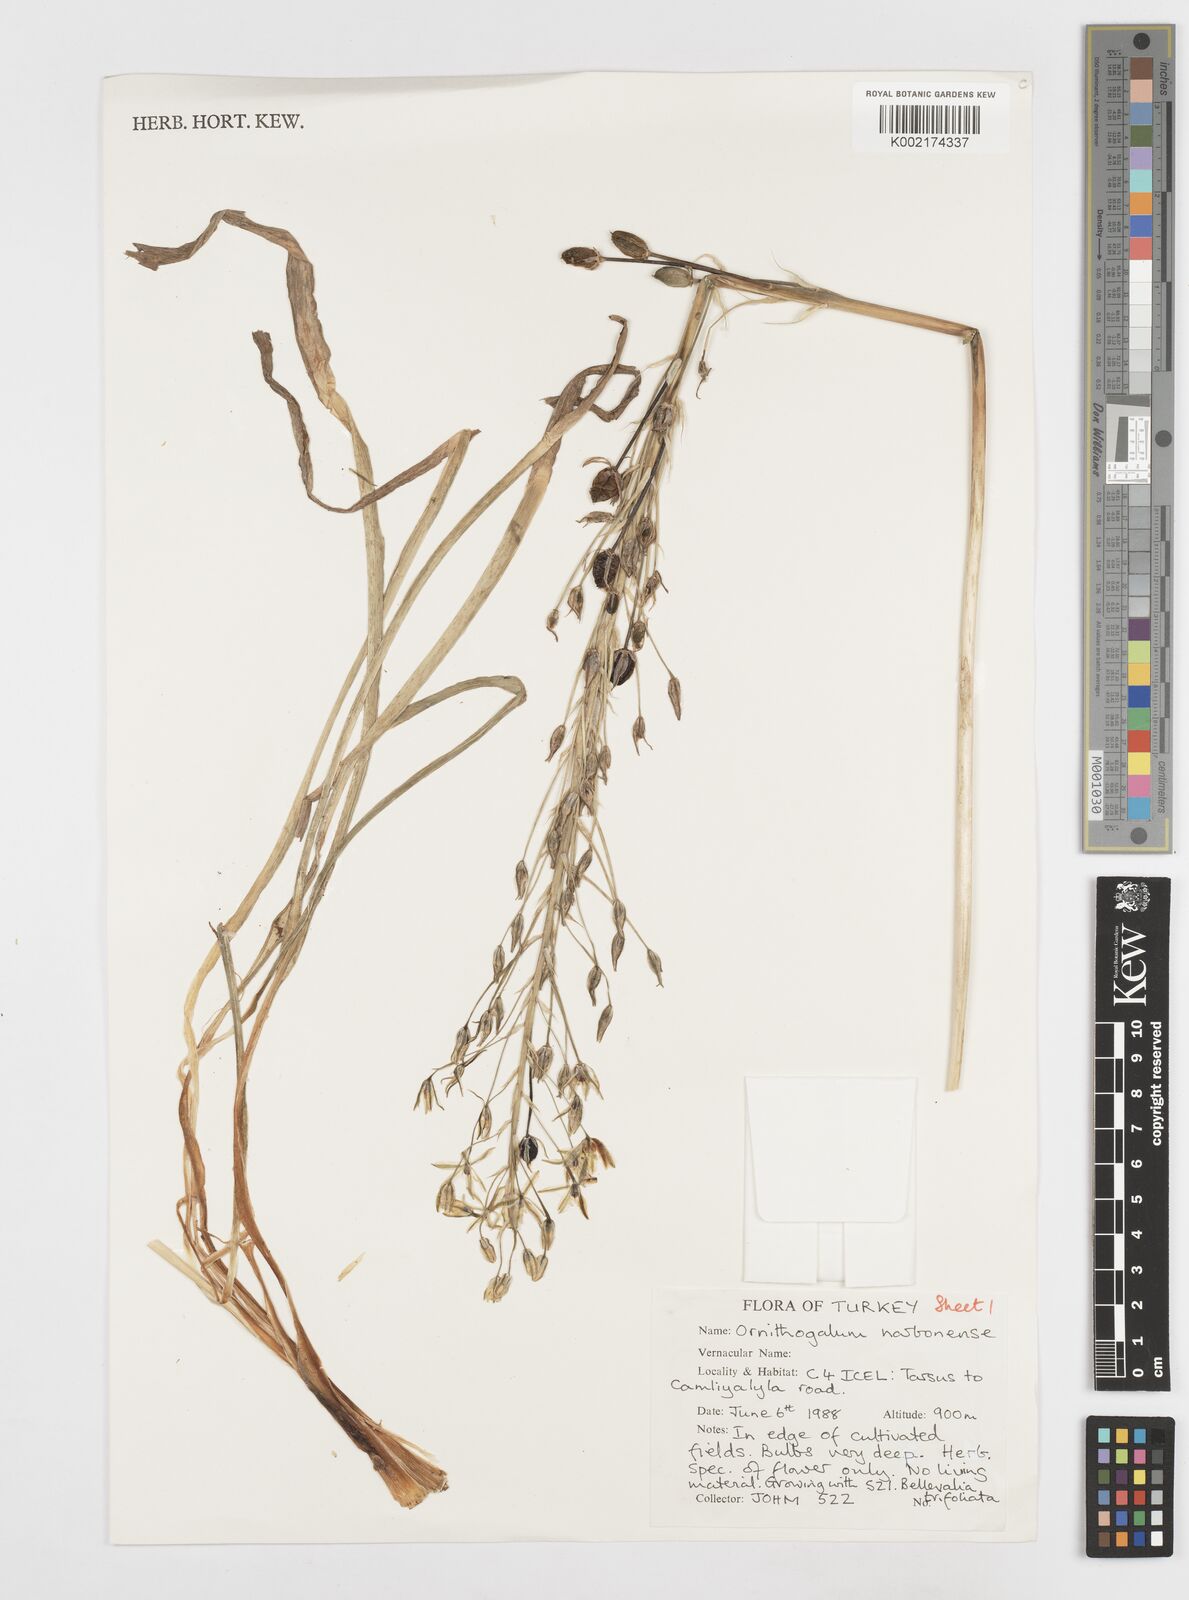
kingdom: Plantae
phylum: Tracheophyta
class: Liliopsida
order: Asparagales
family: Asparagaceae
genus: Ornithogalum
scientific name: Ornithogalum narbonense
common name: Bath-asparagus
